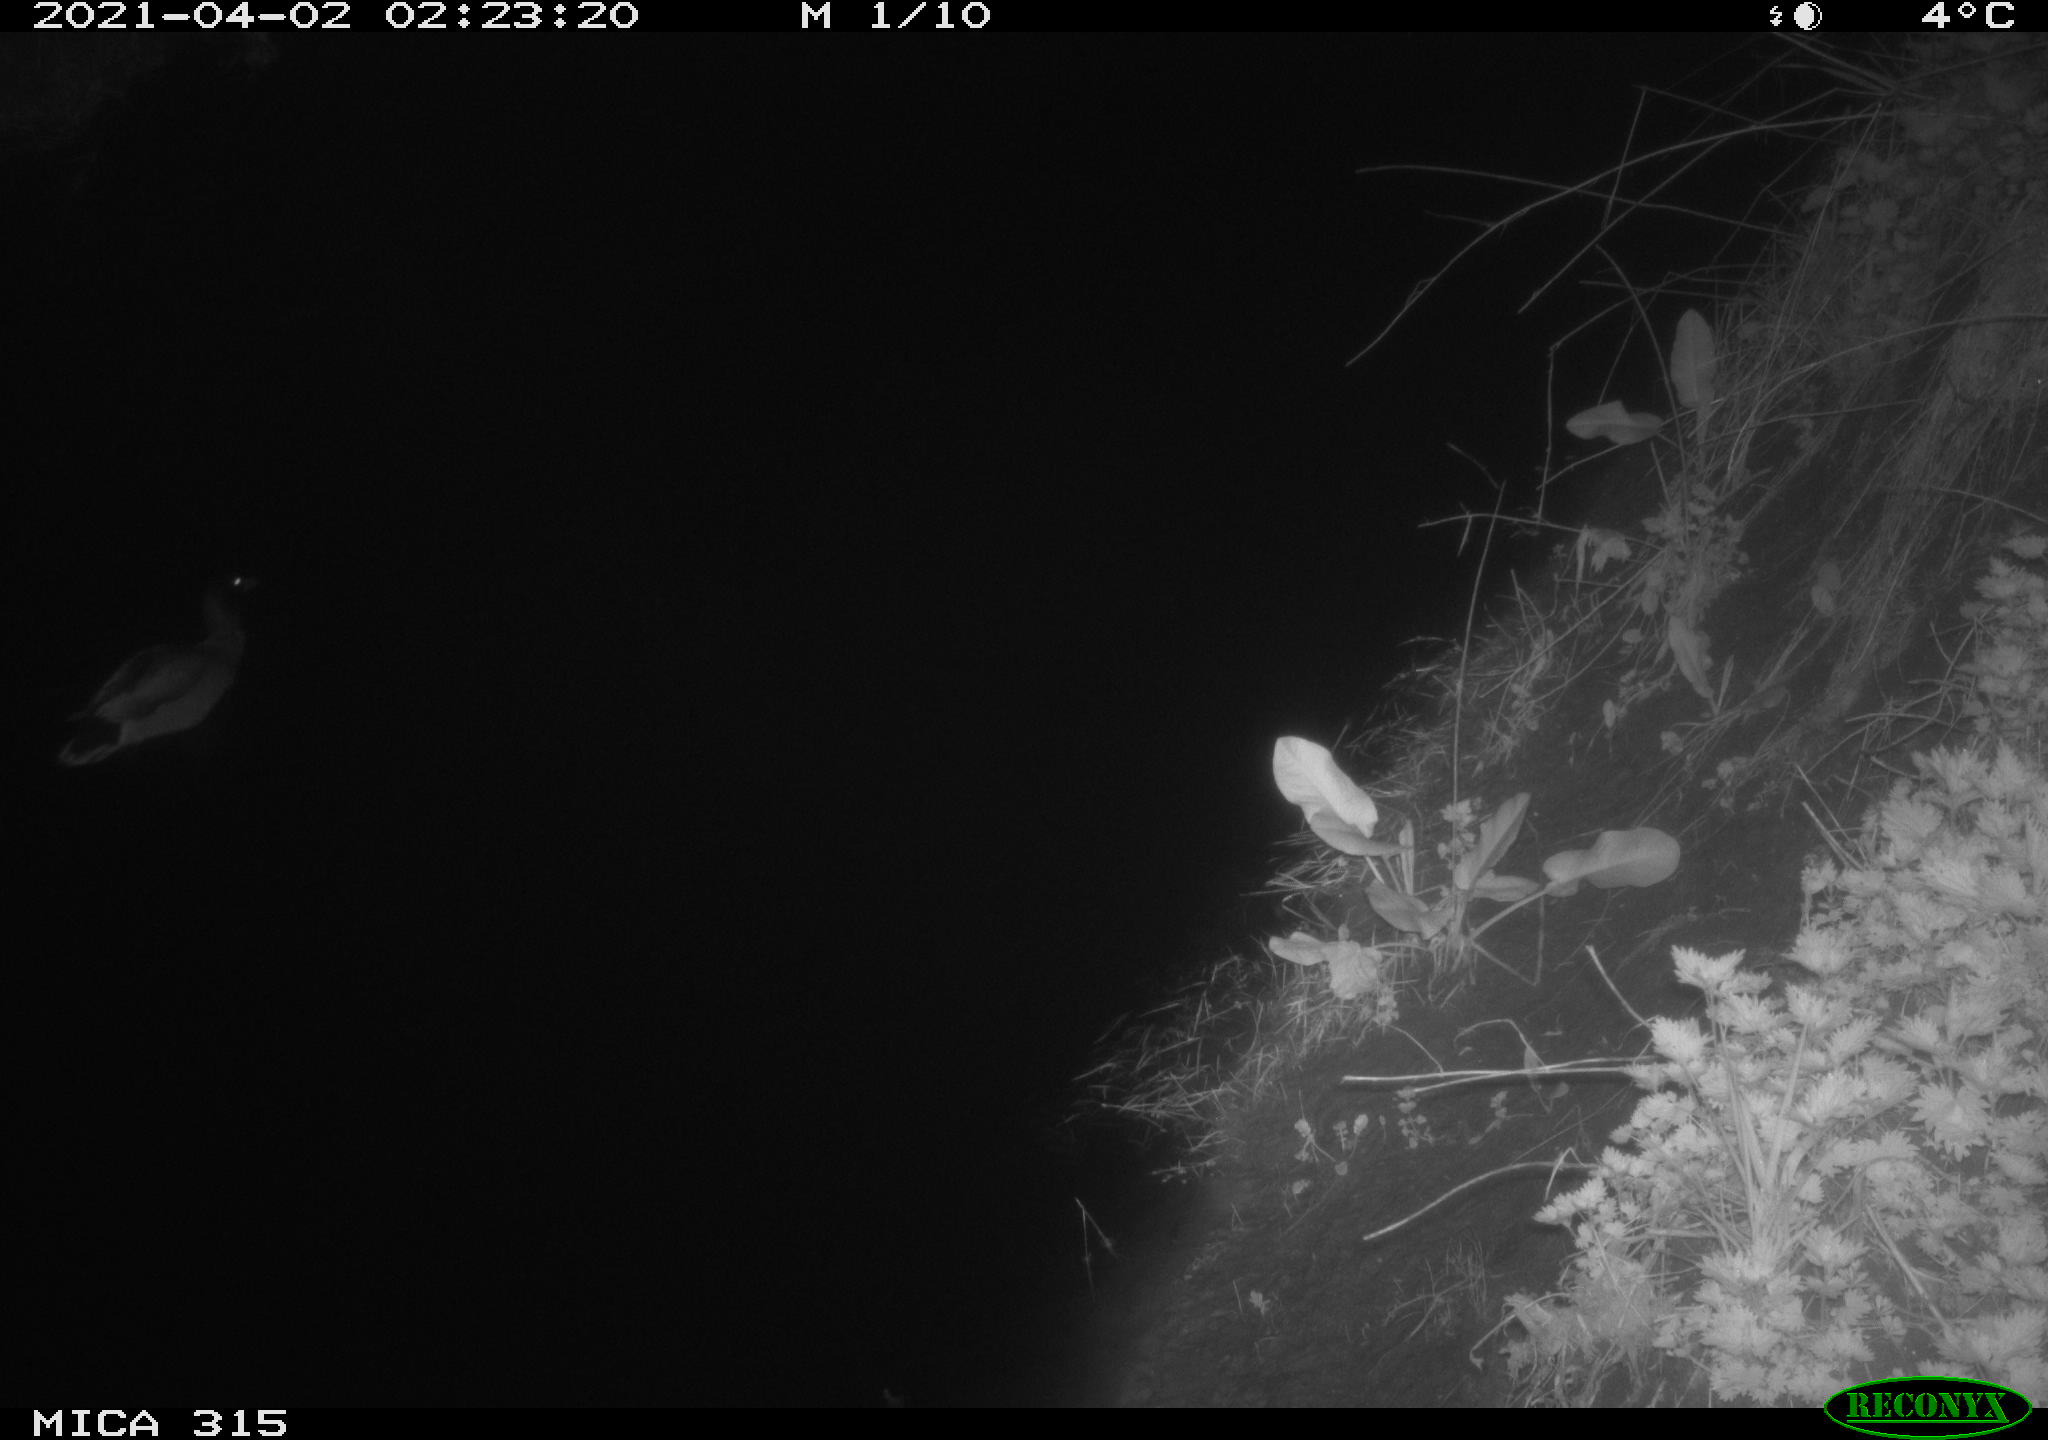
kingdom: Animalia
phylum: Chordata
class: Aves
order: Anseriformes
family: Anatidae
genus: Anas
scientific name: Anas platyrhynchos
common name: Mallard
